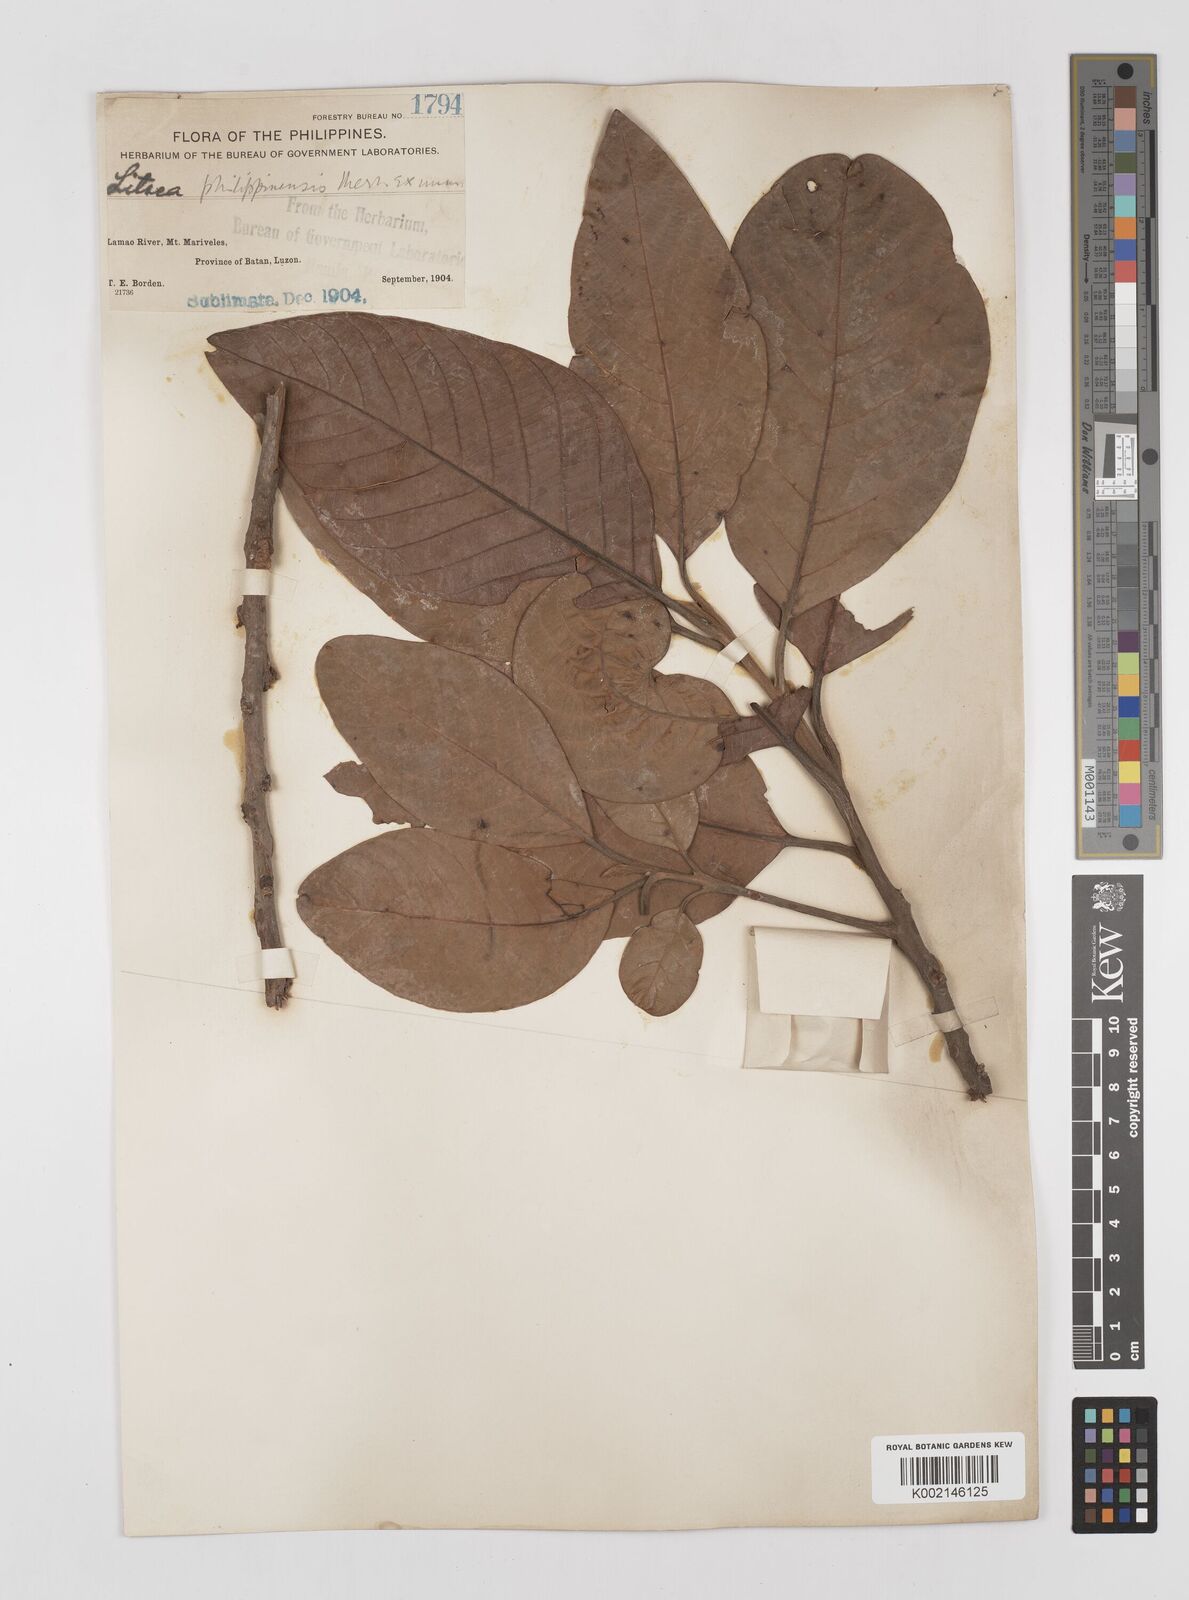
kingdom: Plantae
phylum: Tracheophyta
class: Magnoliopsida
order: Laurales
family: Lauraceae
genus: Litsea
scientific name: Litsea philippinensis
